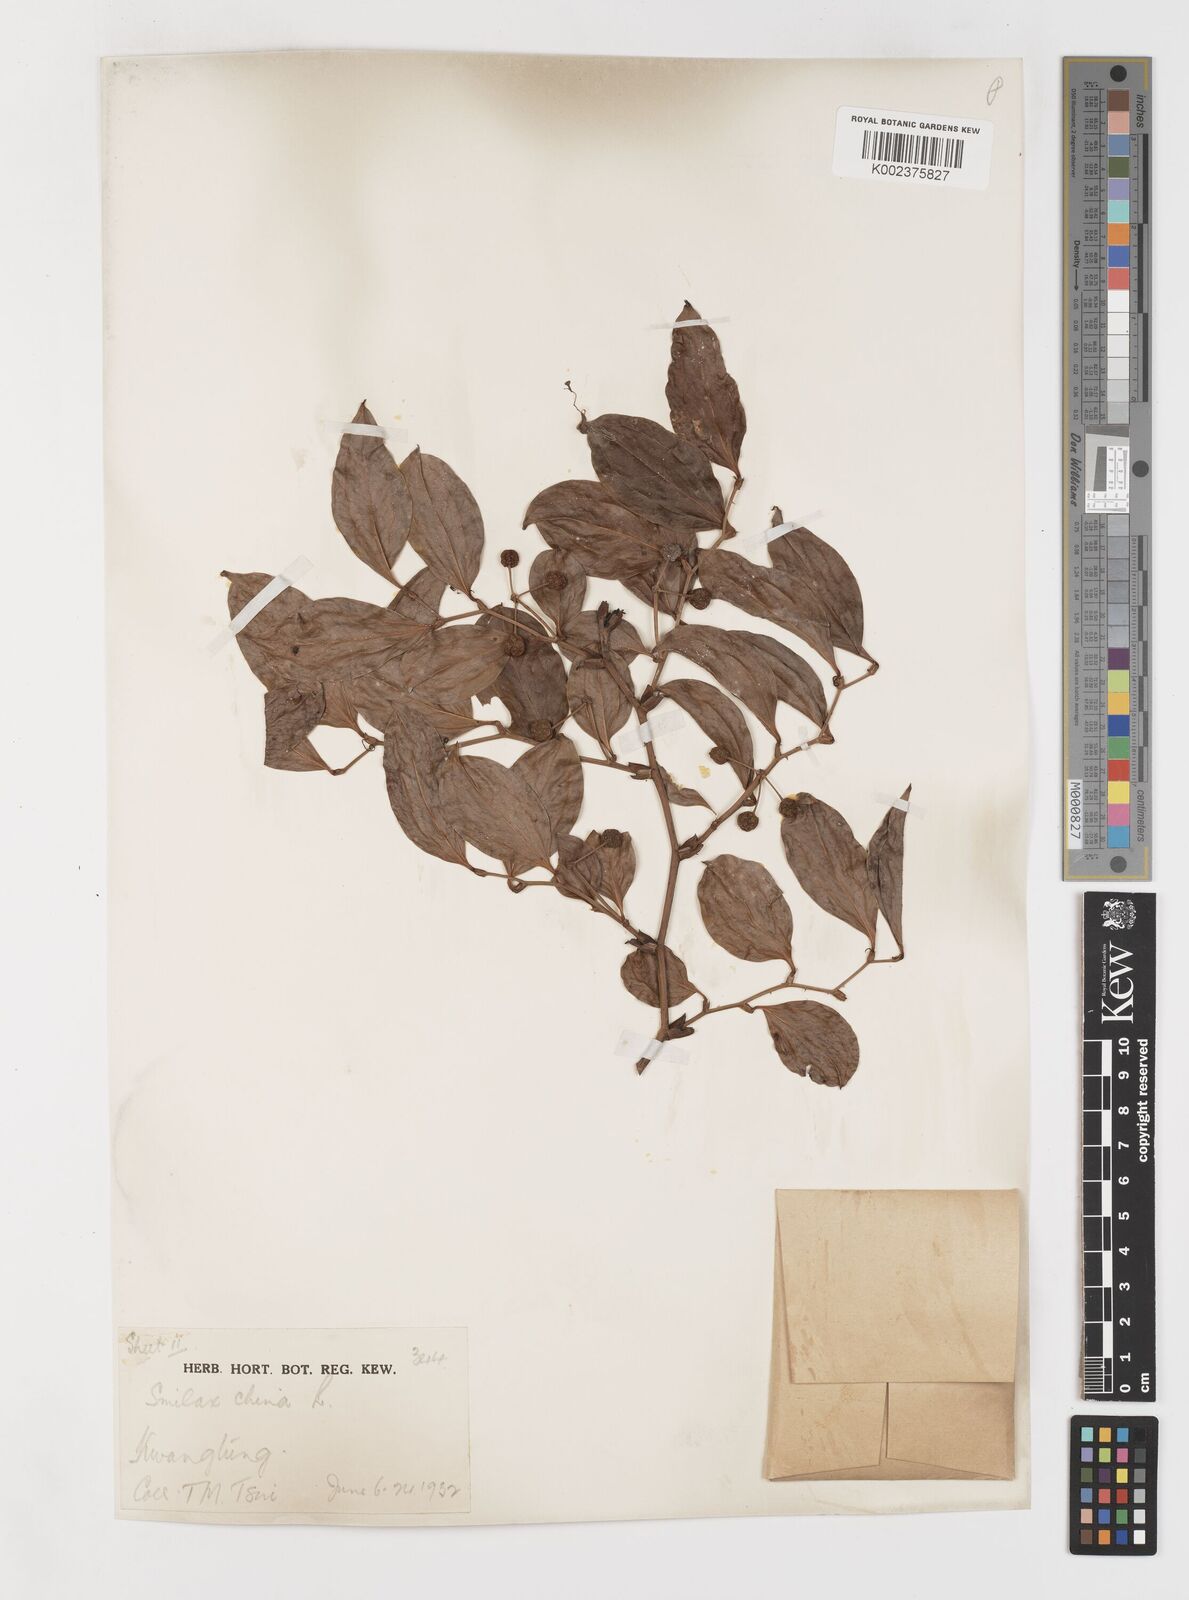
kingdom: Plantae
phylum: Tracheophyta
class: Liliopsida
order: Liliales
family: Smilacaceae
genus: Smilax
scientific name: Smilax china
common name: Chinaroot
